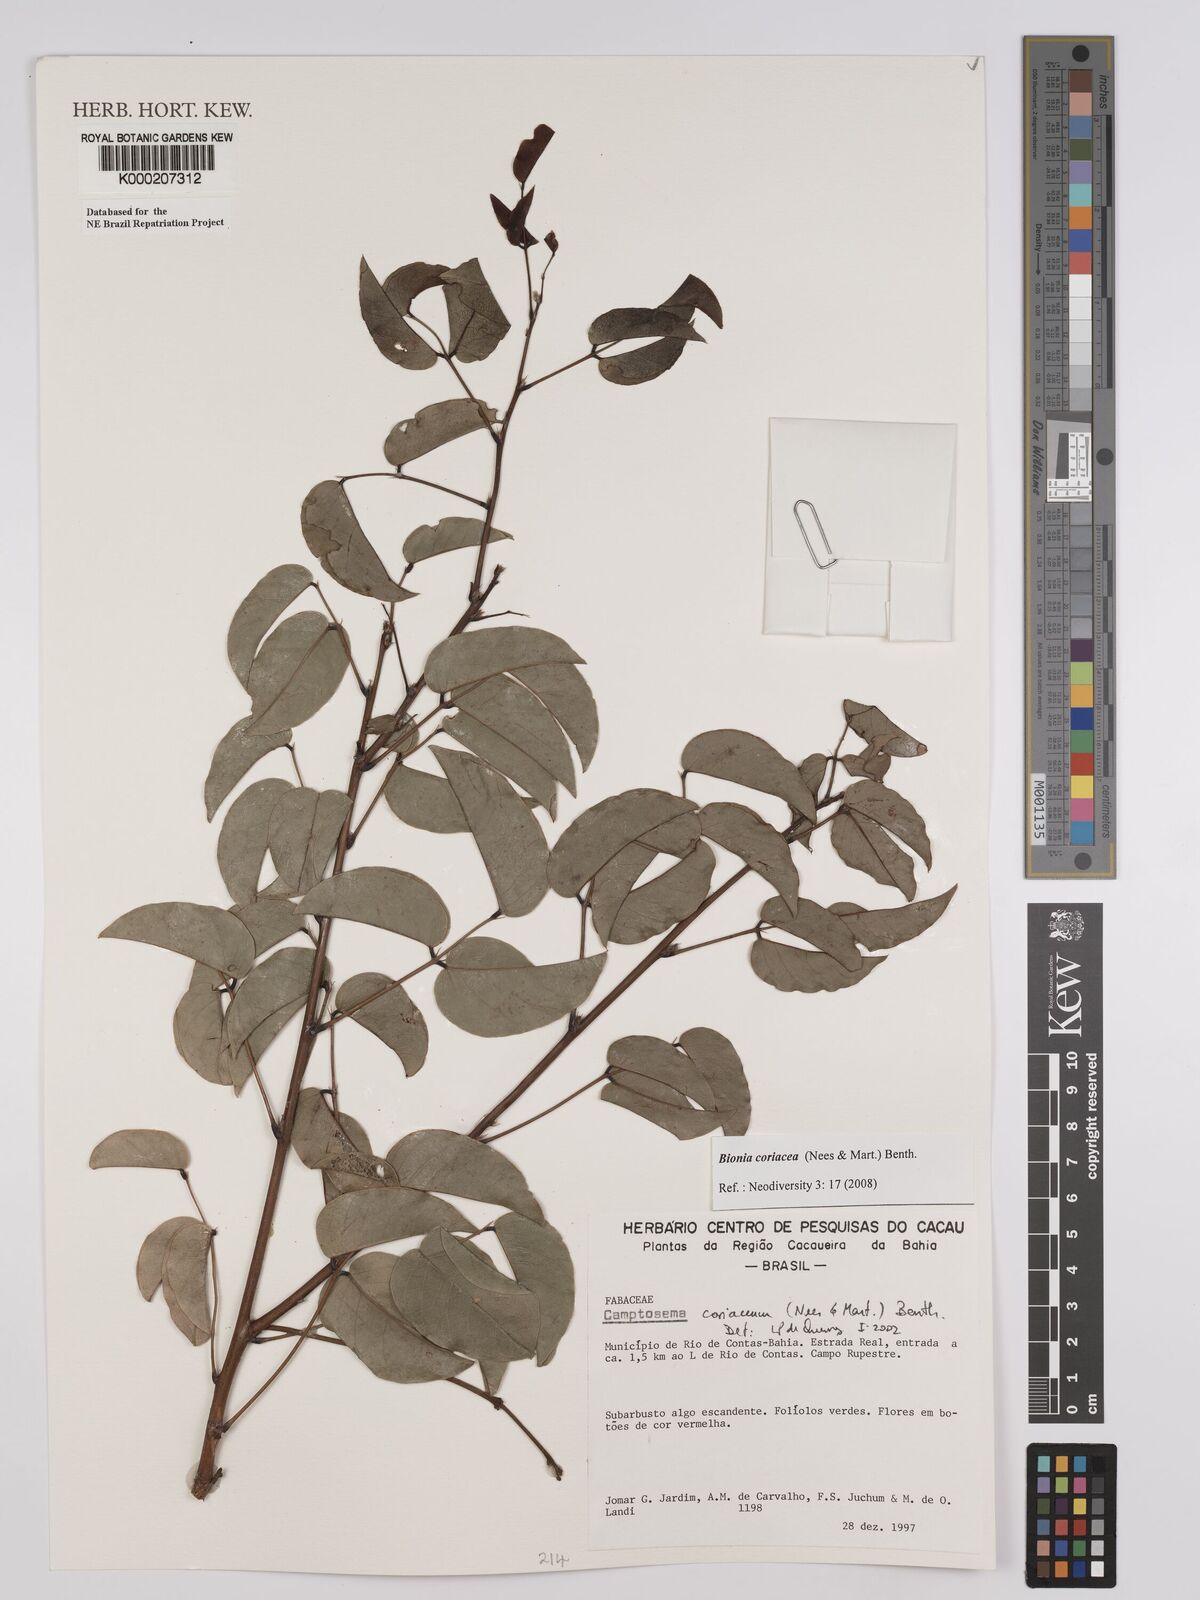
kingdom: Plantae
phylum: Tracheophyta
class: Magnoliopsida
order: Fabales
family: Fabaceae
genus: Camptosema
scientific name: Camptosema coriaceum
